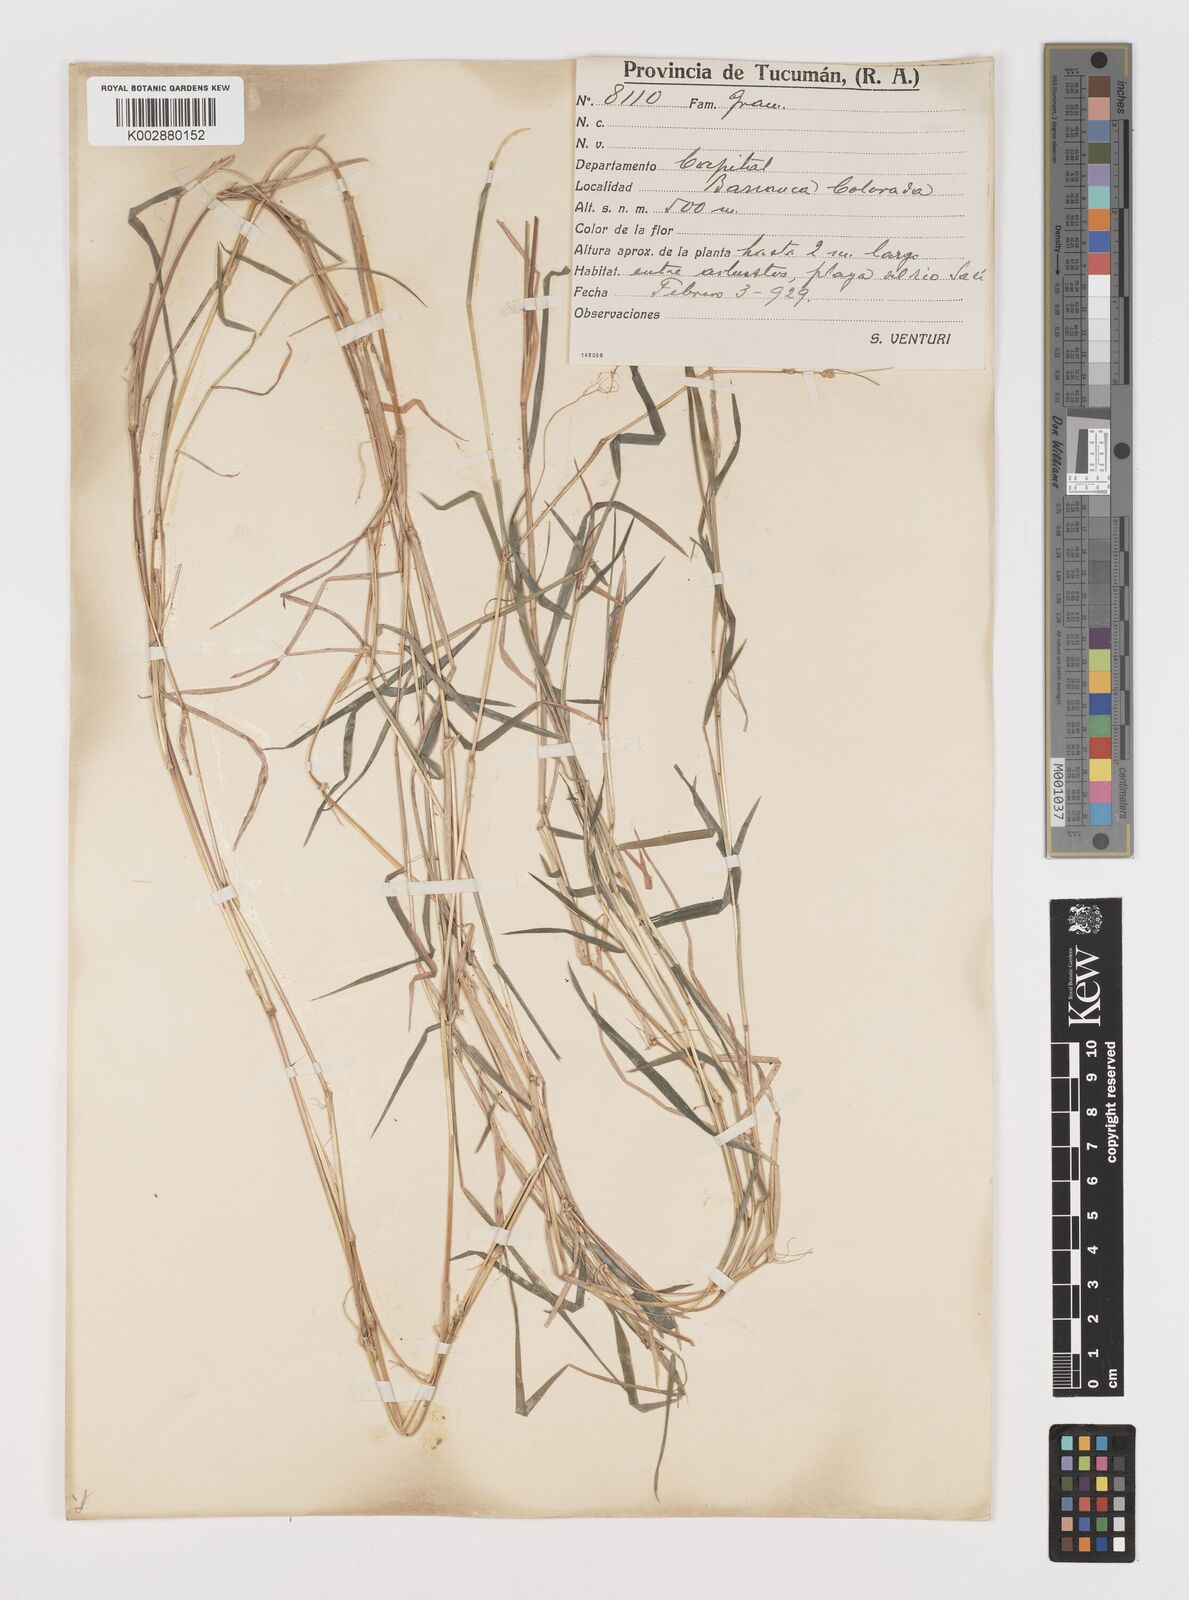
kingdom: Plantae
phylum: Tracheophyta
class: Liliopsida
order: Poales
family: Poaceae
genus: Muhlenbergia
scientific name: Muhlenbergia schreberi
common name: Nimblewill
